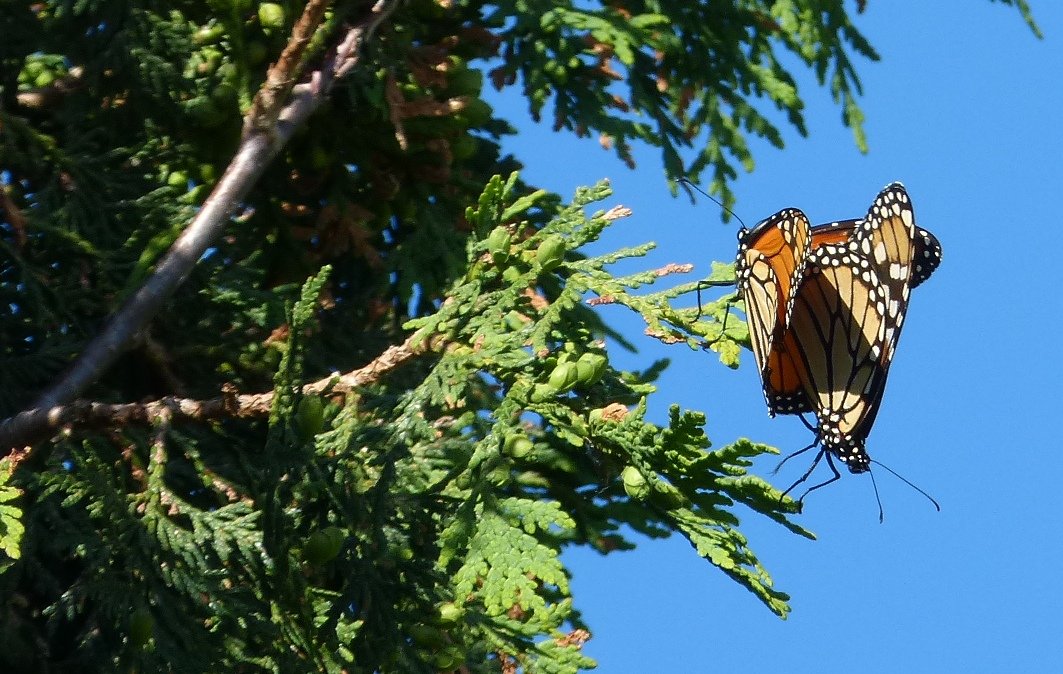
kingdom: Animalia
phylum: Arthropoda
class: Insecta
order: Lepidoptera
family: Nymphalidae
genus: Danaus
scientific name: Danaus plexippus
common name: Monarch
